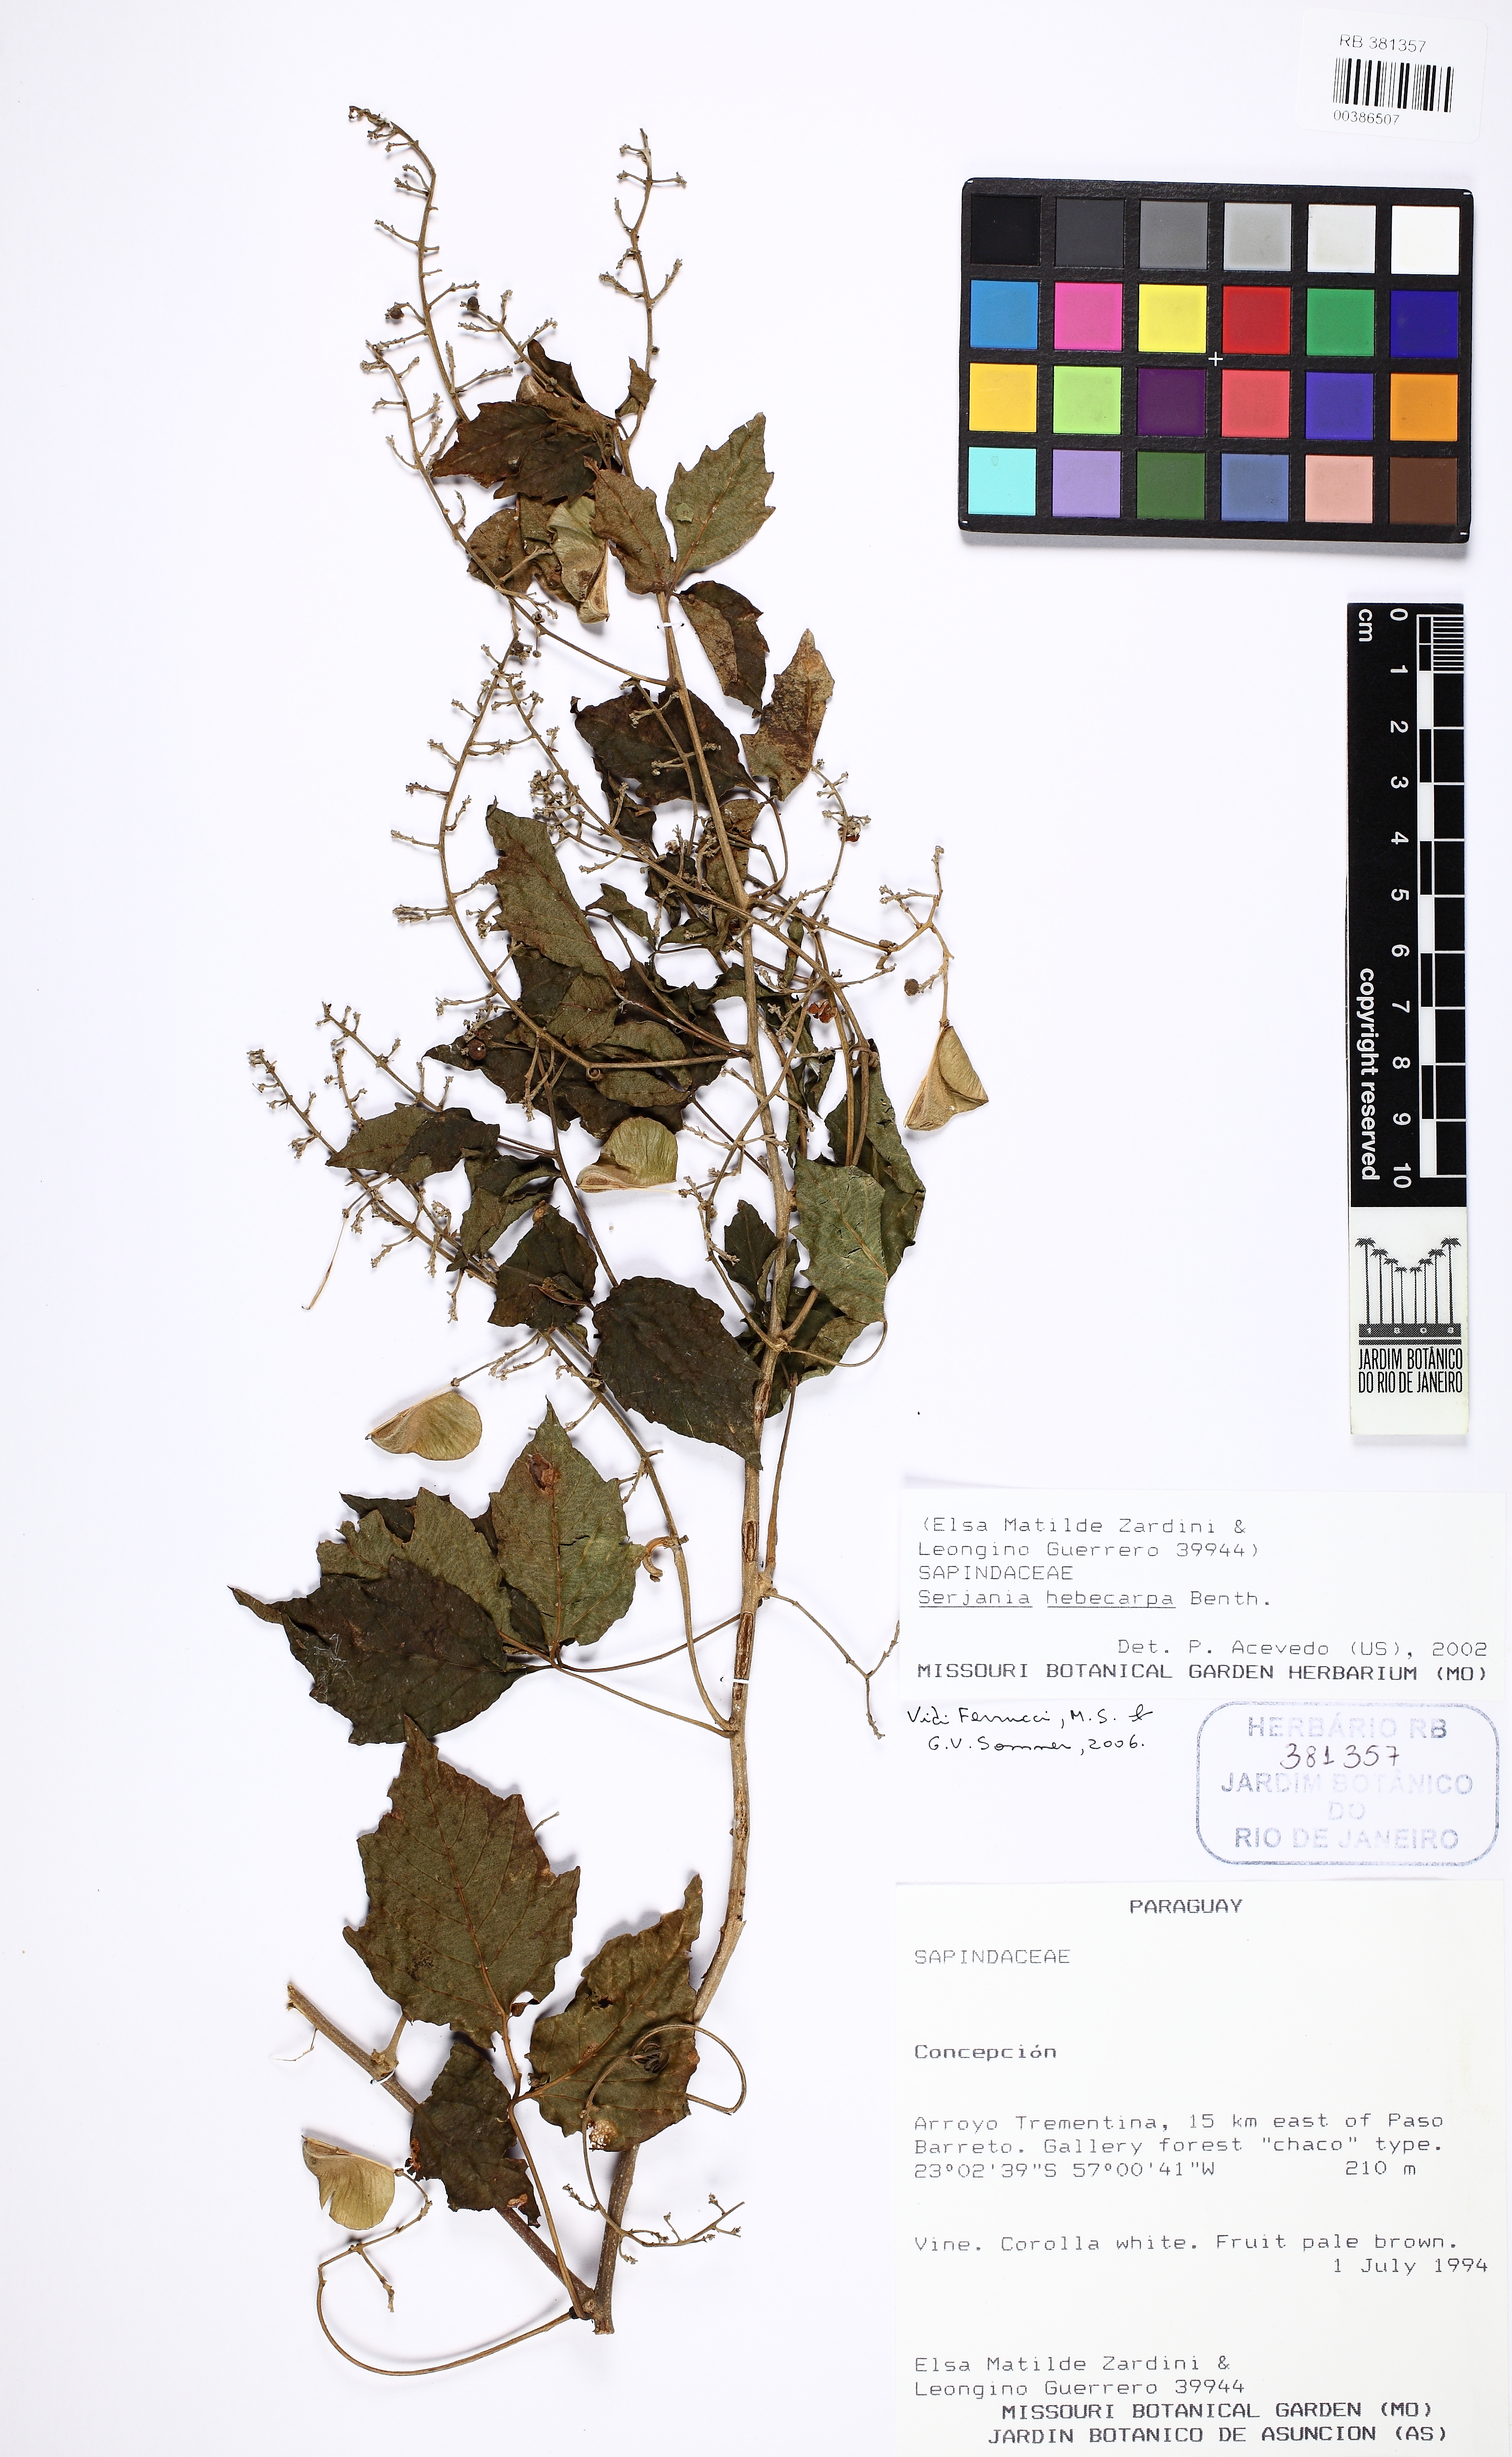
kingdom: Plantae
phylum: Tracheophyta
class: Magnoliopsida
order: Sapindales
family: Sapindaceae
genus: Serjania
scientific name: Serjania hebecarpa
